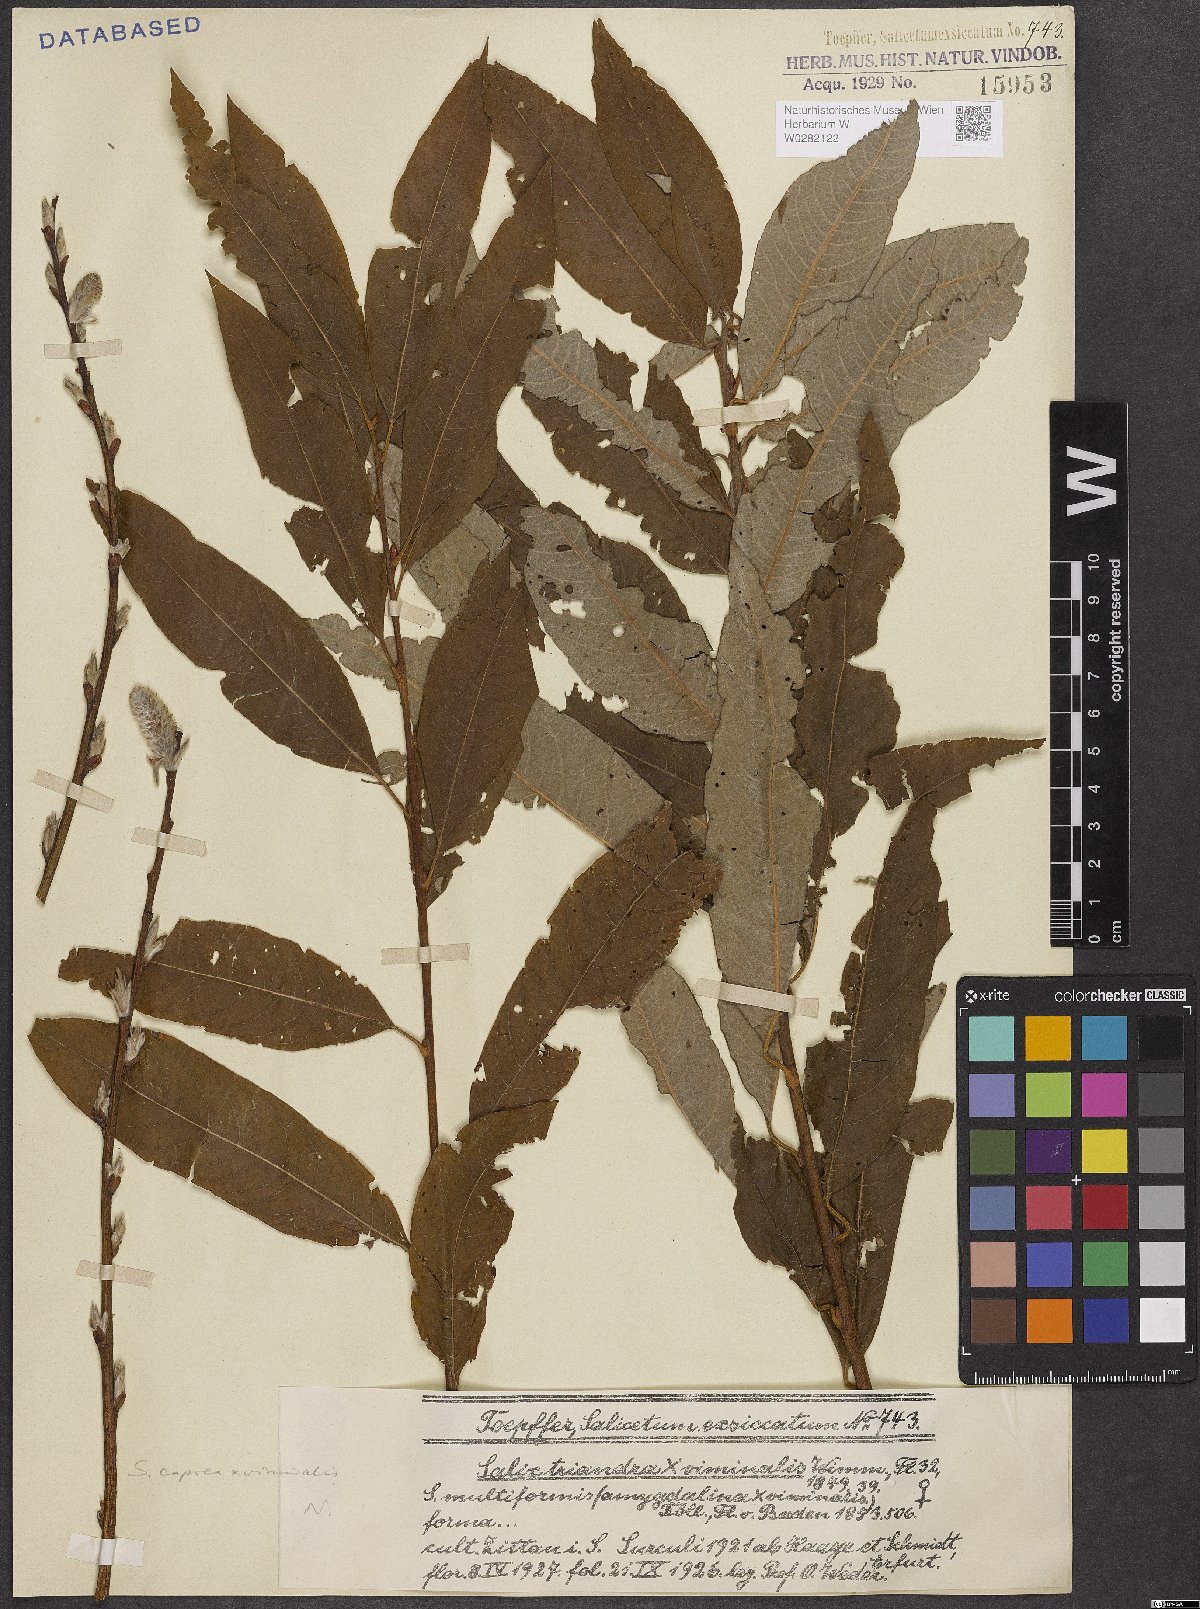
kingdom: Plantae
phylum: Tracheophyta
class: Magnoliopsida
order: Malpighiales
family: Salicaceae
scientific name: Salicaceae
